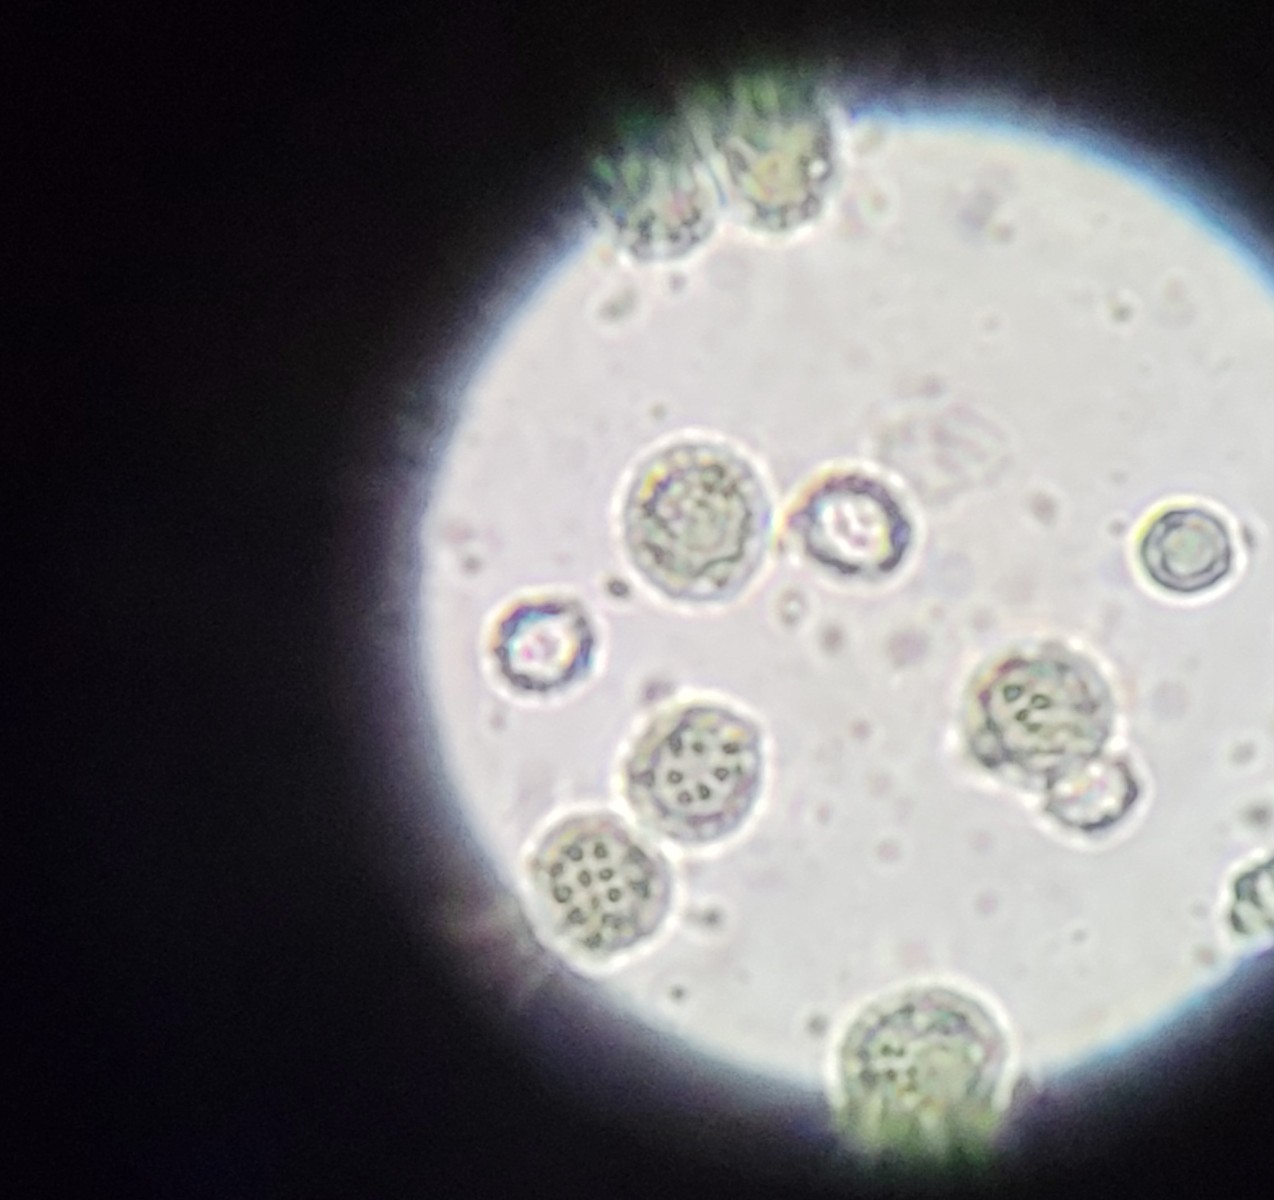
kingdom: Fungi
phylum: Basidiomycota
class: Agaricomycetes
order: Russulales
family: Russulaceae
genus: Russula
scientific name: Russula maculata
